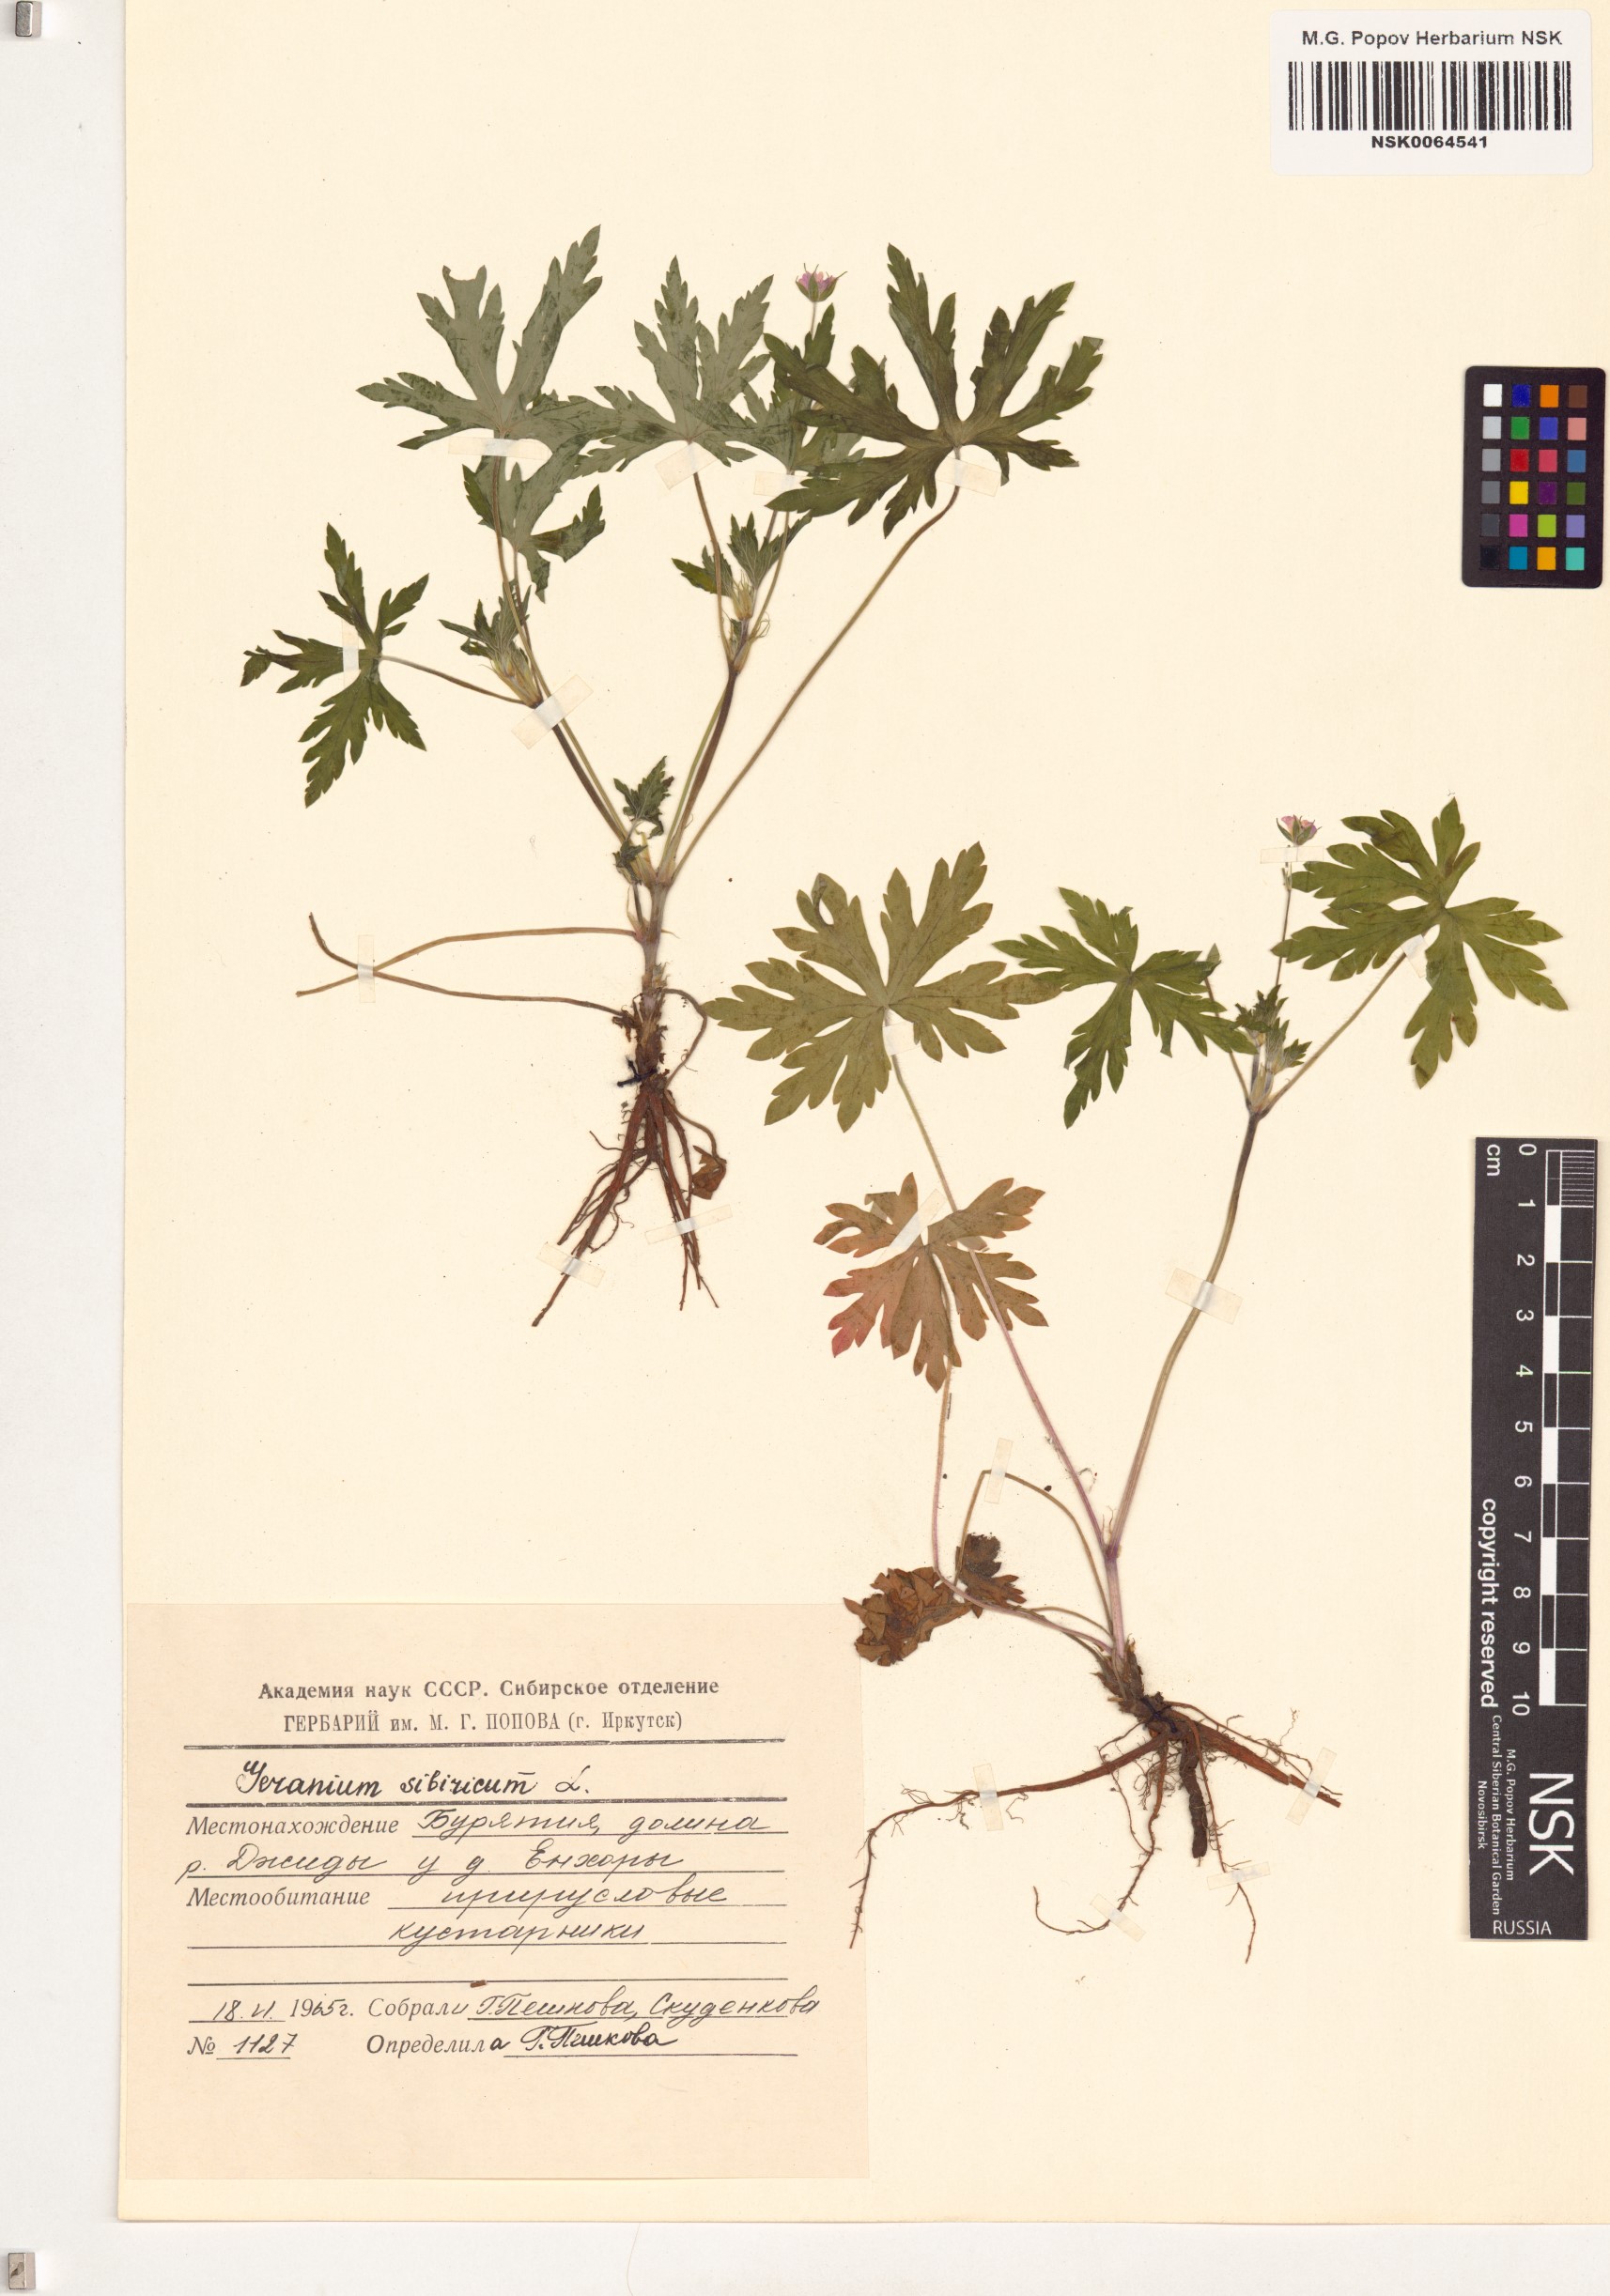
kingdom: Plantae
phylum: Tracheophyta
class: Magnoliopsida
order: Geraniales
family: Geraniaceae
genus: Geranium
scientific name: Geranium sibiricum
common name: Siberian crane's-bill
